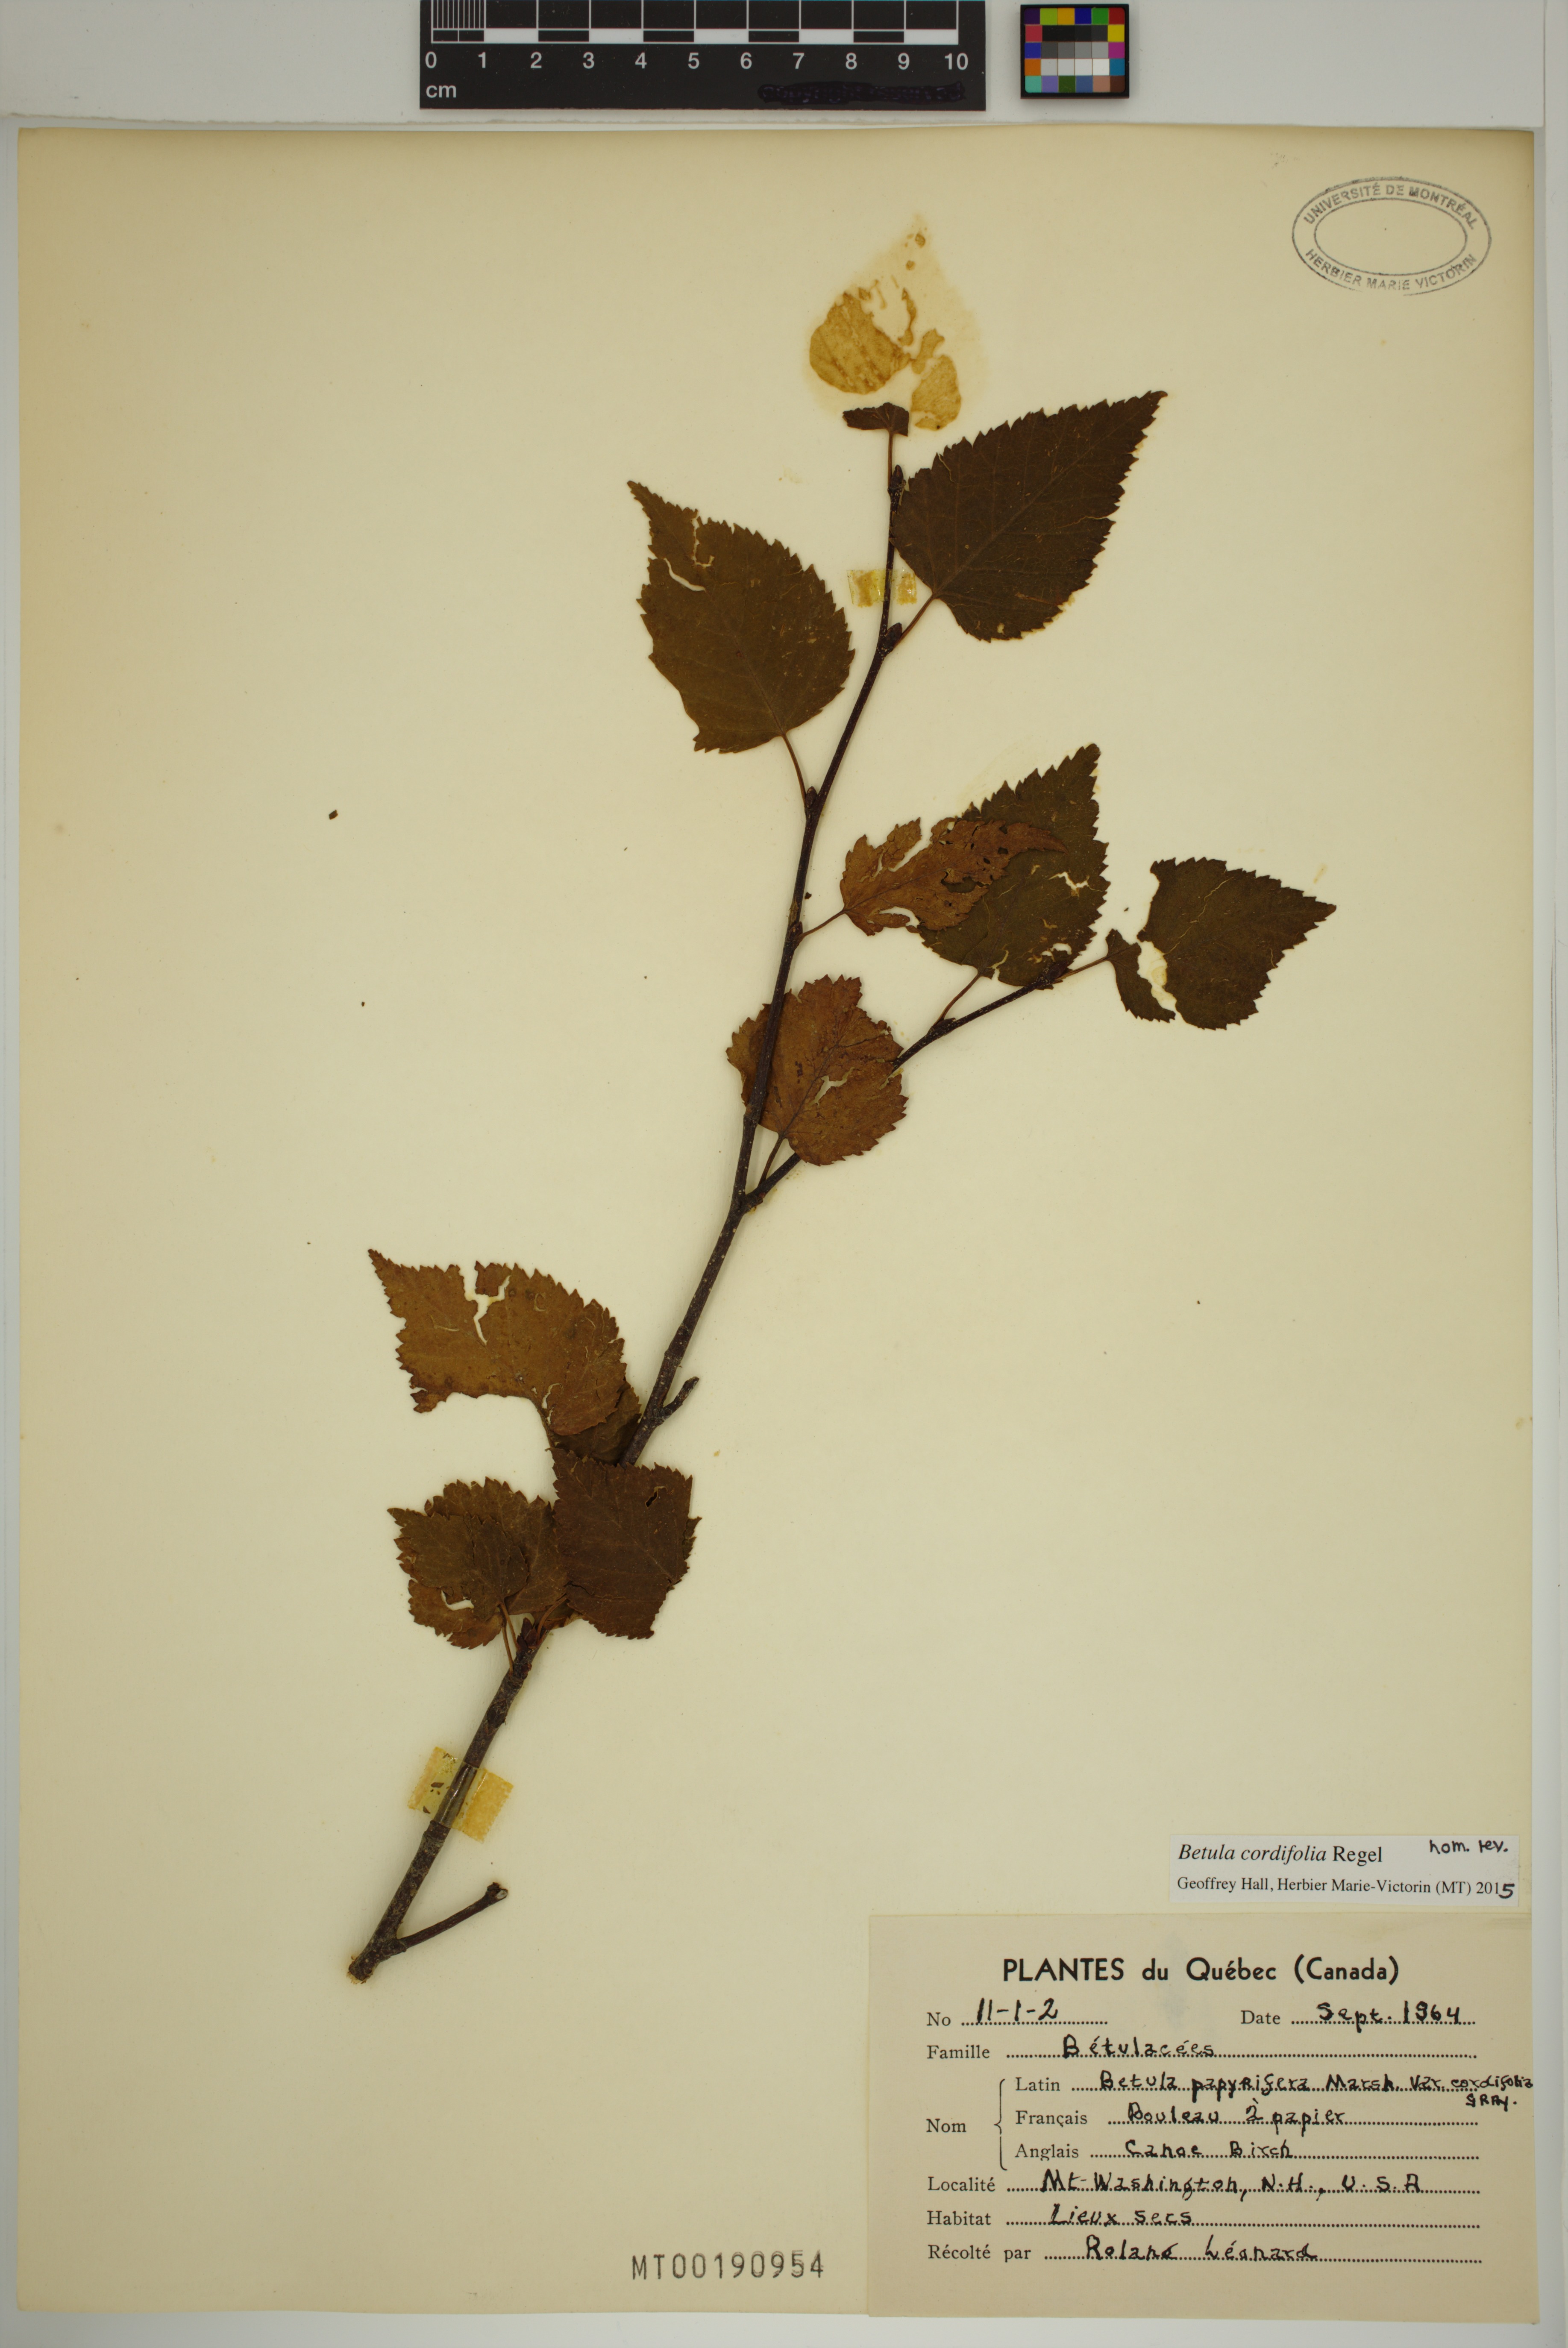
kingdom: Plantae
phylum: Tracheophyta
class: Magnoliopsida
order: Fagales
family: Betulaceae
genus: Betula
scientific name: Betula cordifolia
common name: Mountain white birch
